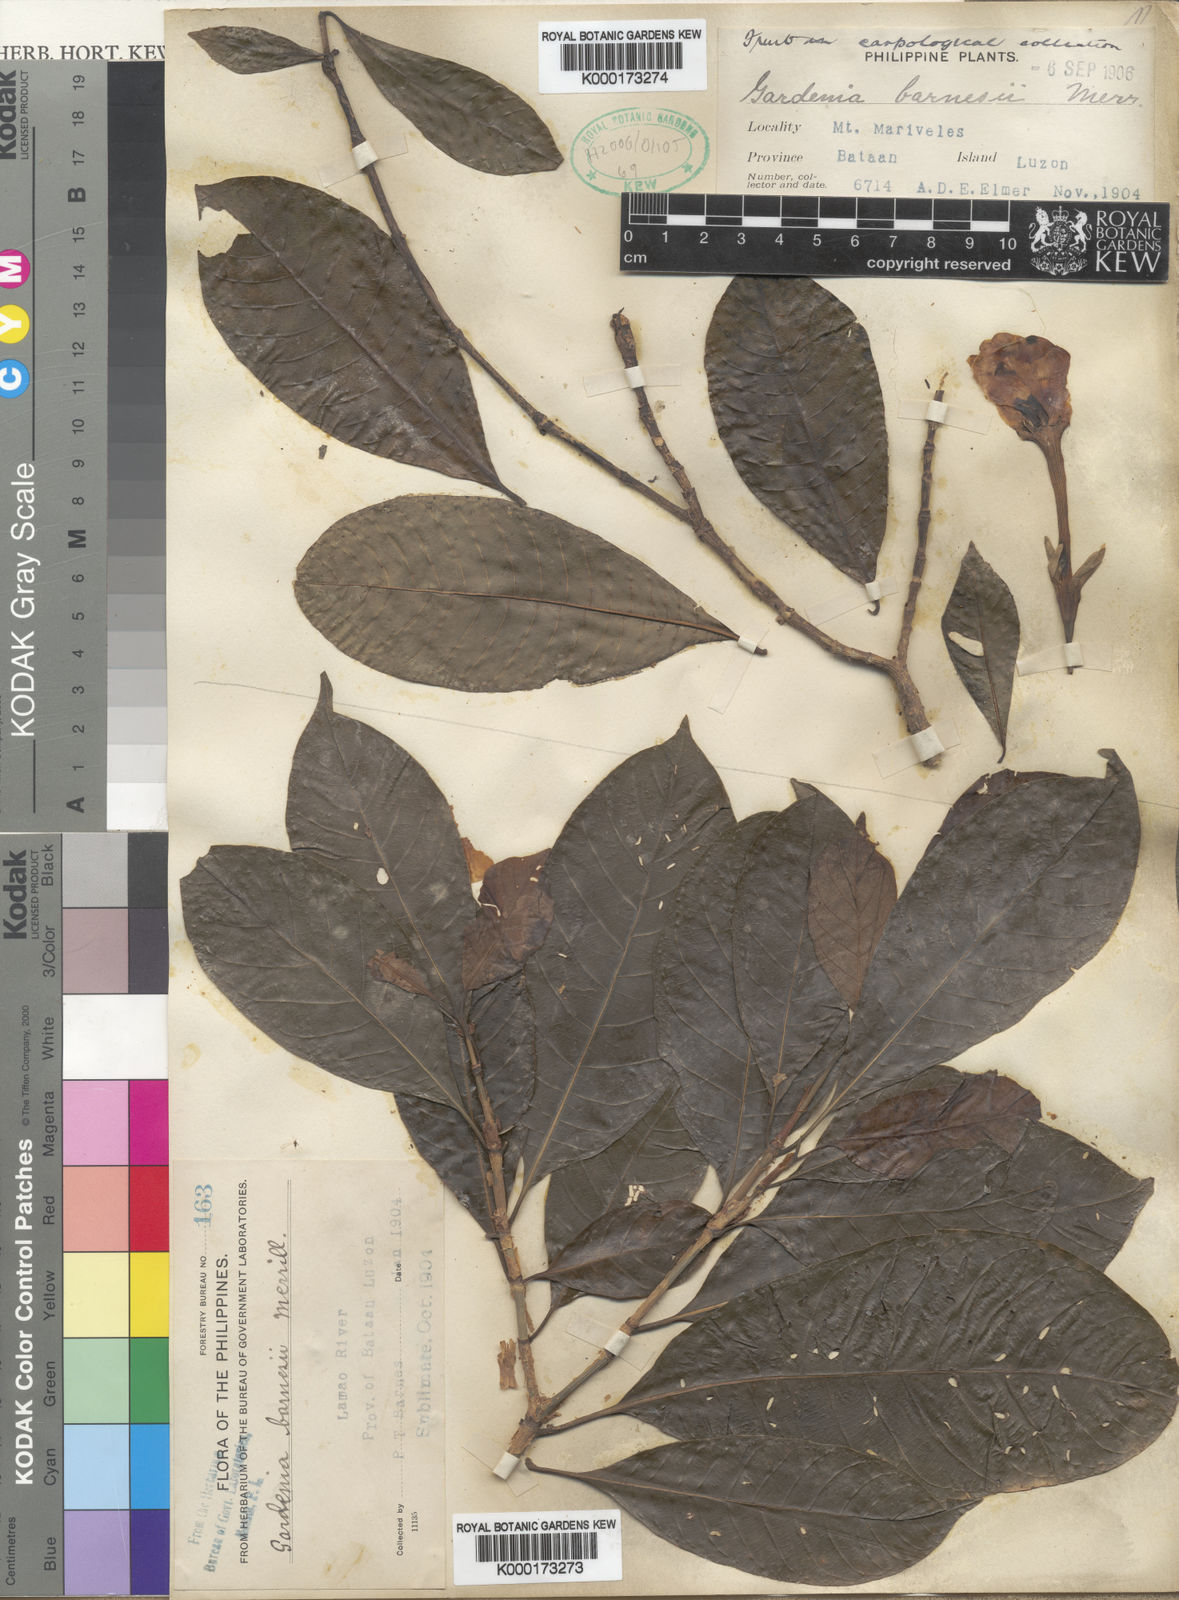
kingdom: Plantae
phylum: Tracheophyta
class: Magnoliopsida
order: Gentianales
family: Rubiaceae
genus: Gardenia
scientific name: Gardenia barnesii
